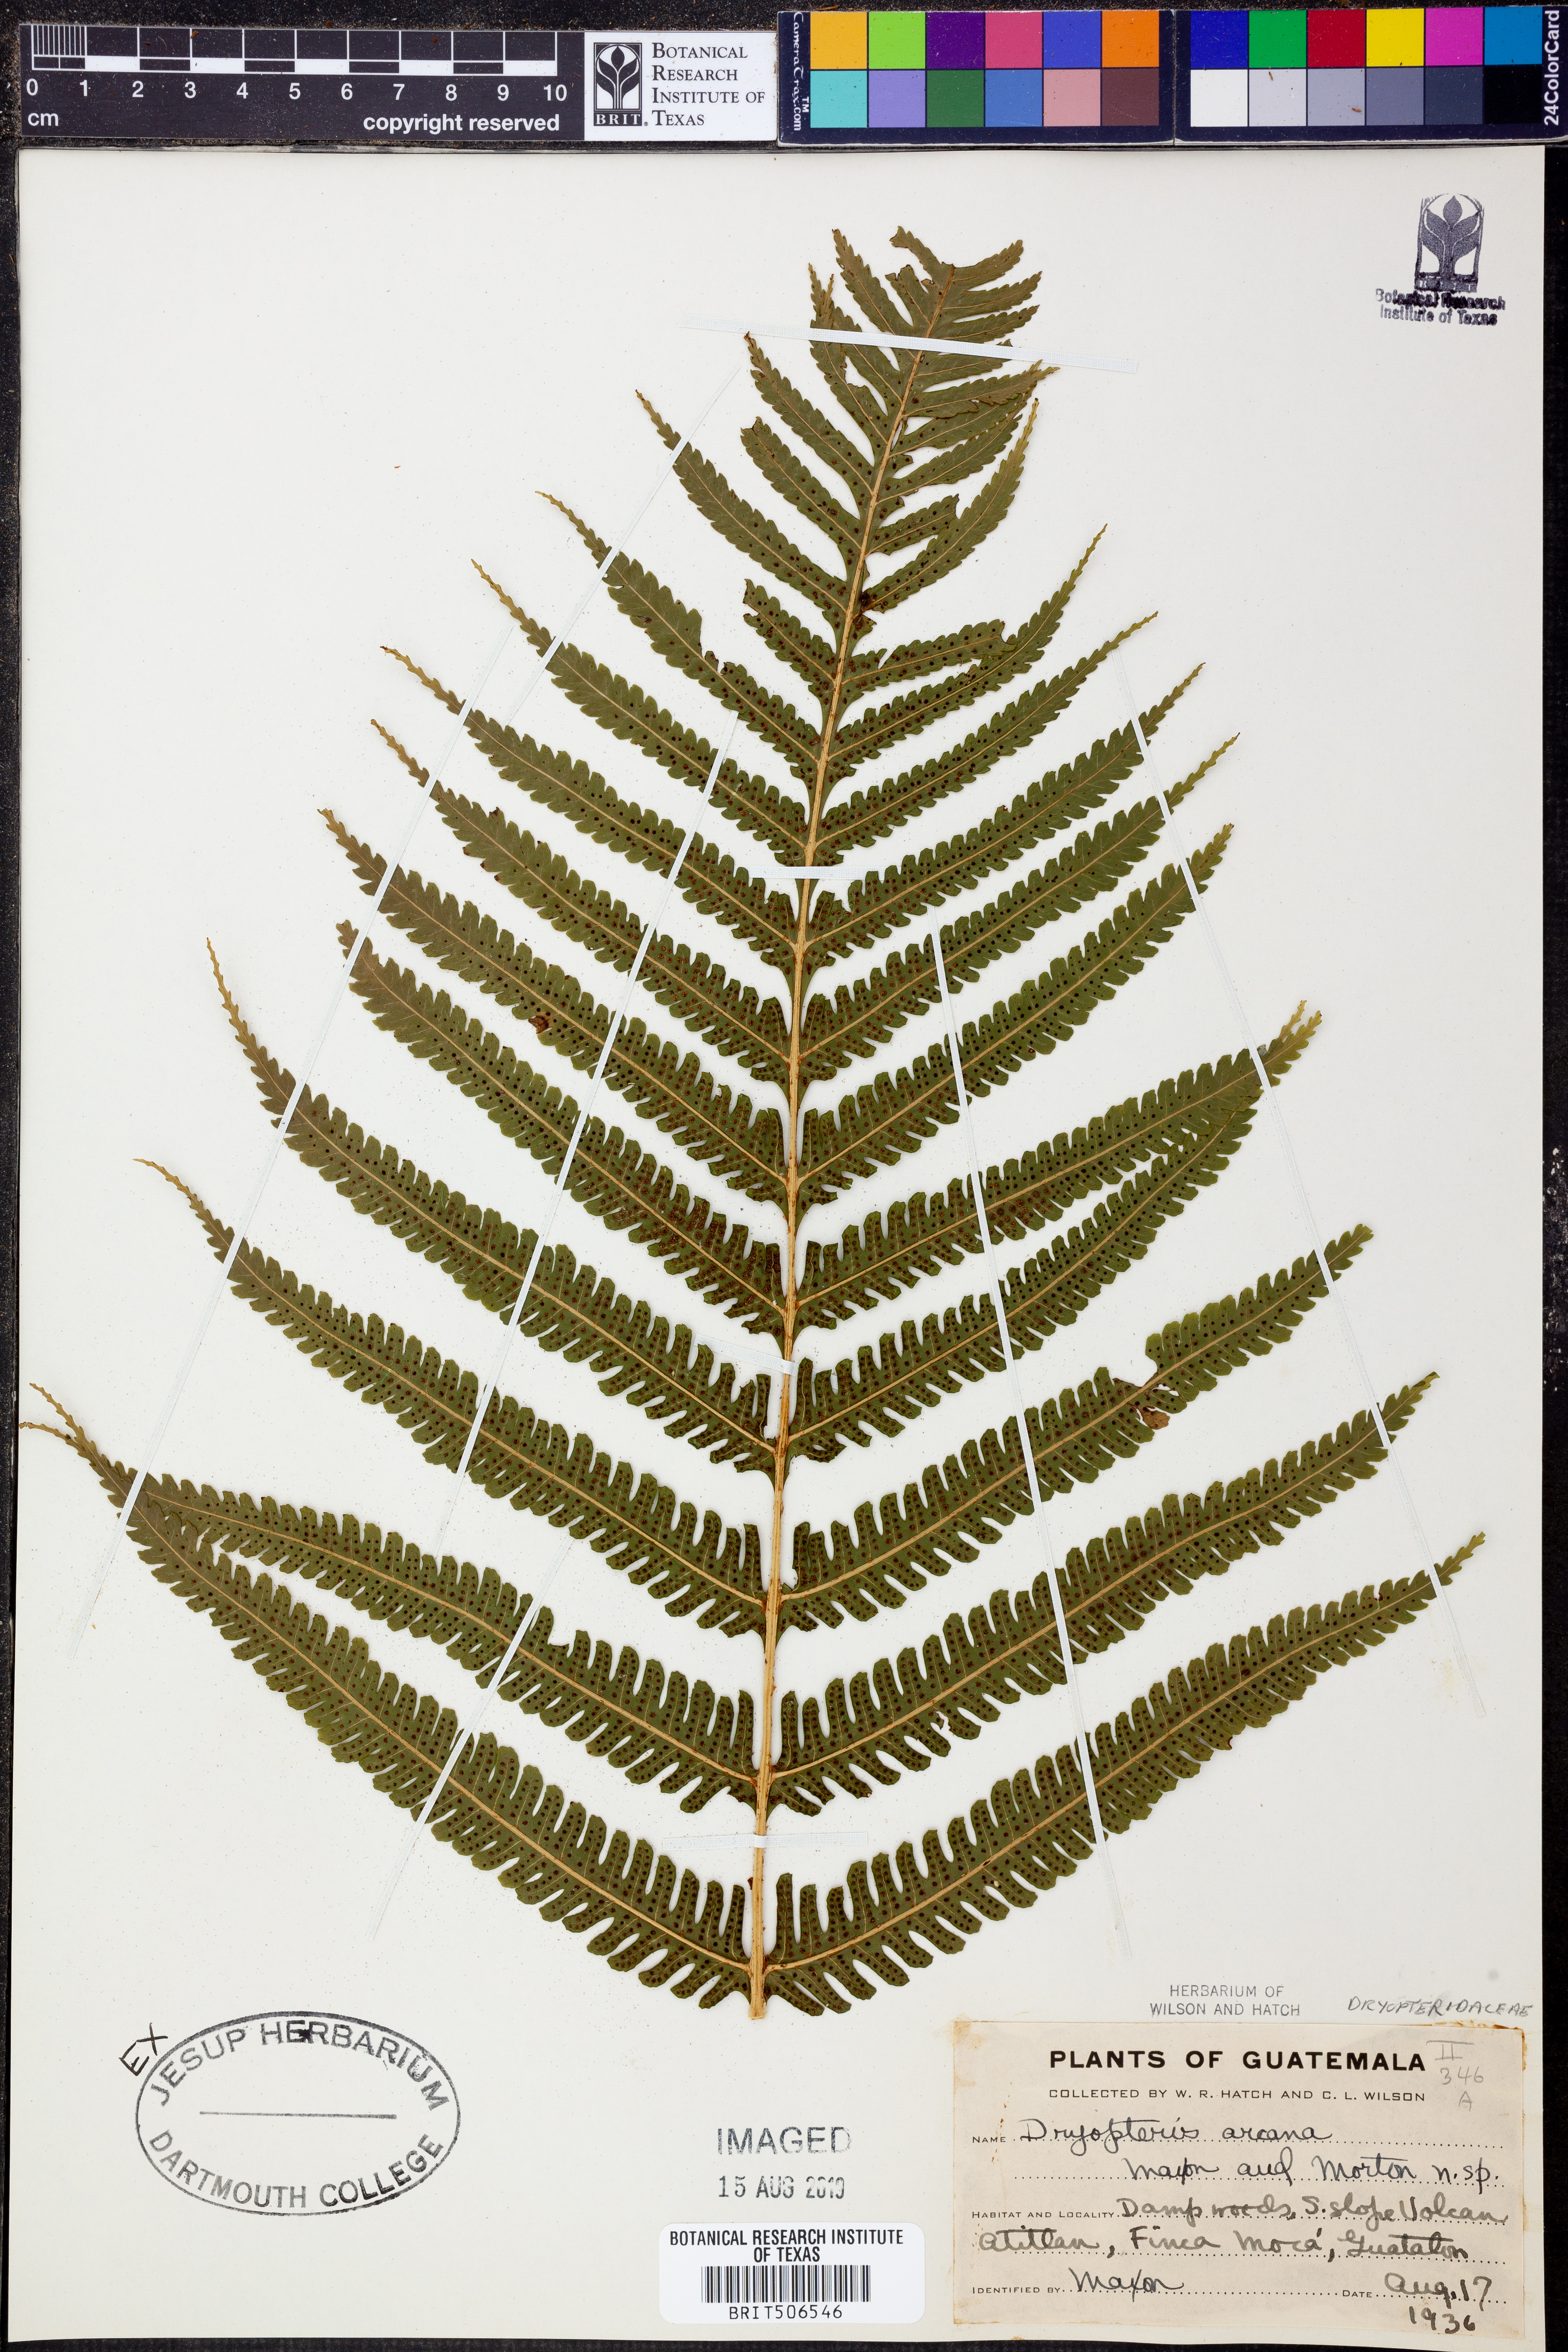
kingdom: Plantae
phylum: Tracheophyta
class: Polypodiopsida
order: Polypodiales
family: Thelypteridaceae
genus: Meniscium
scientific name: Meniscium arcanum
